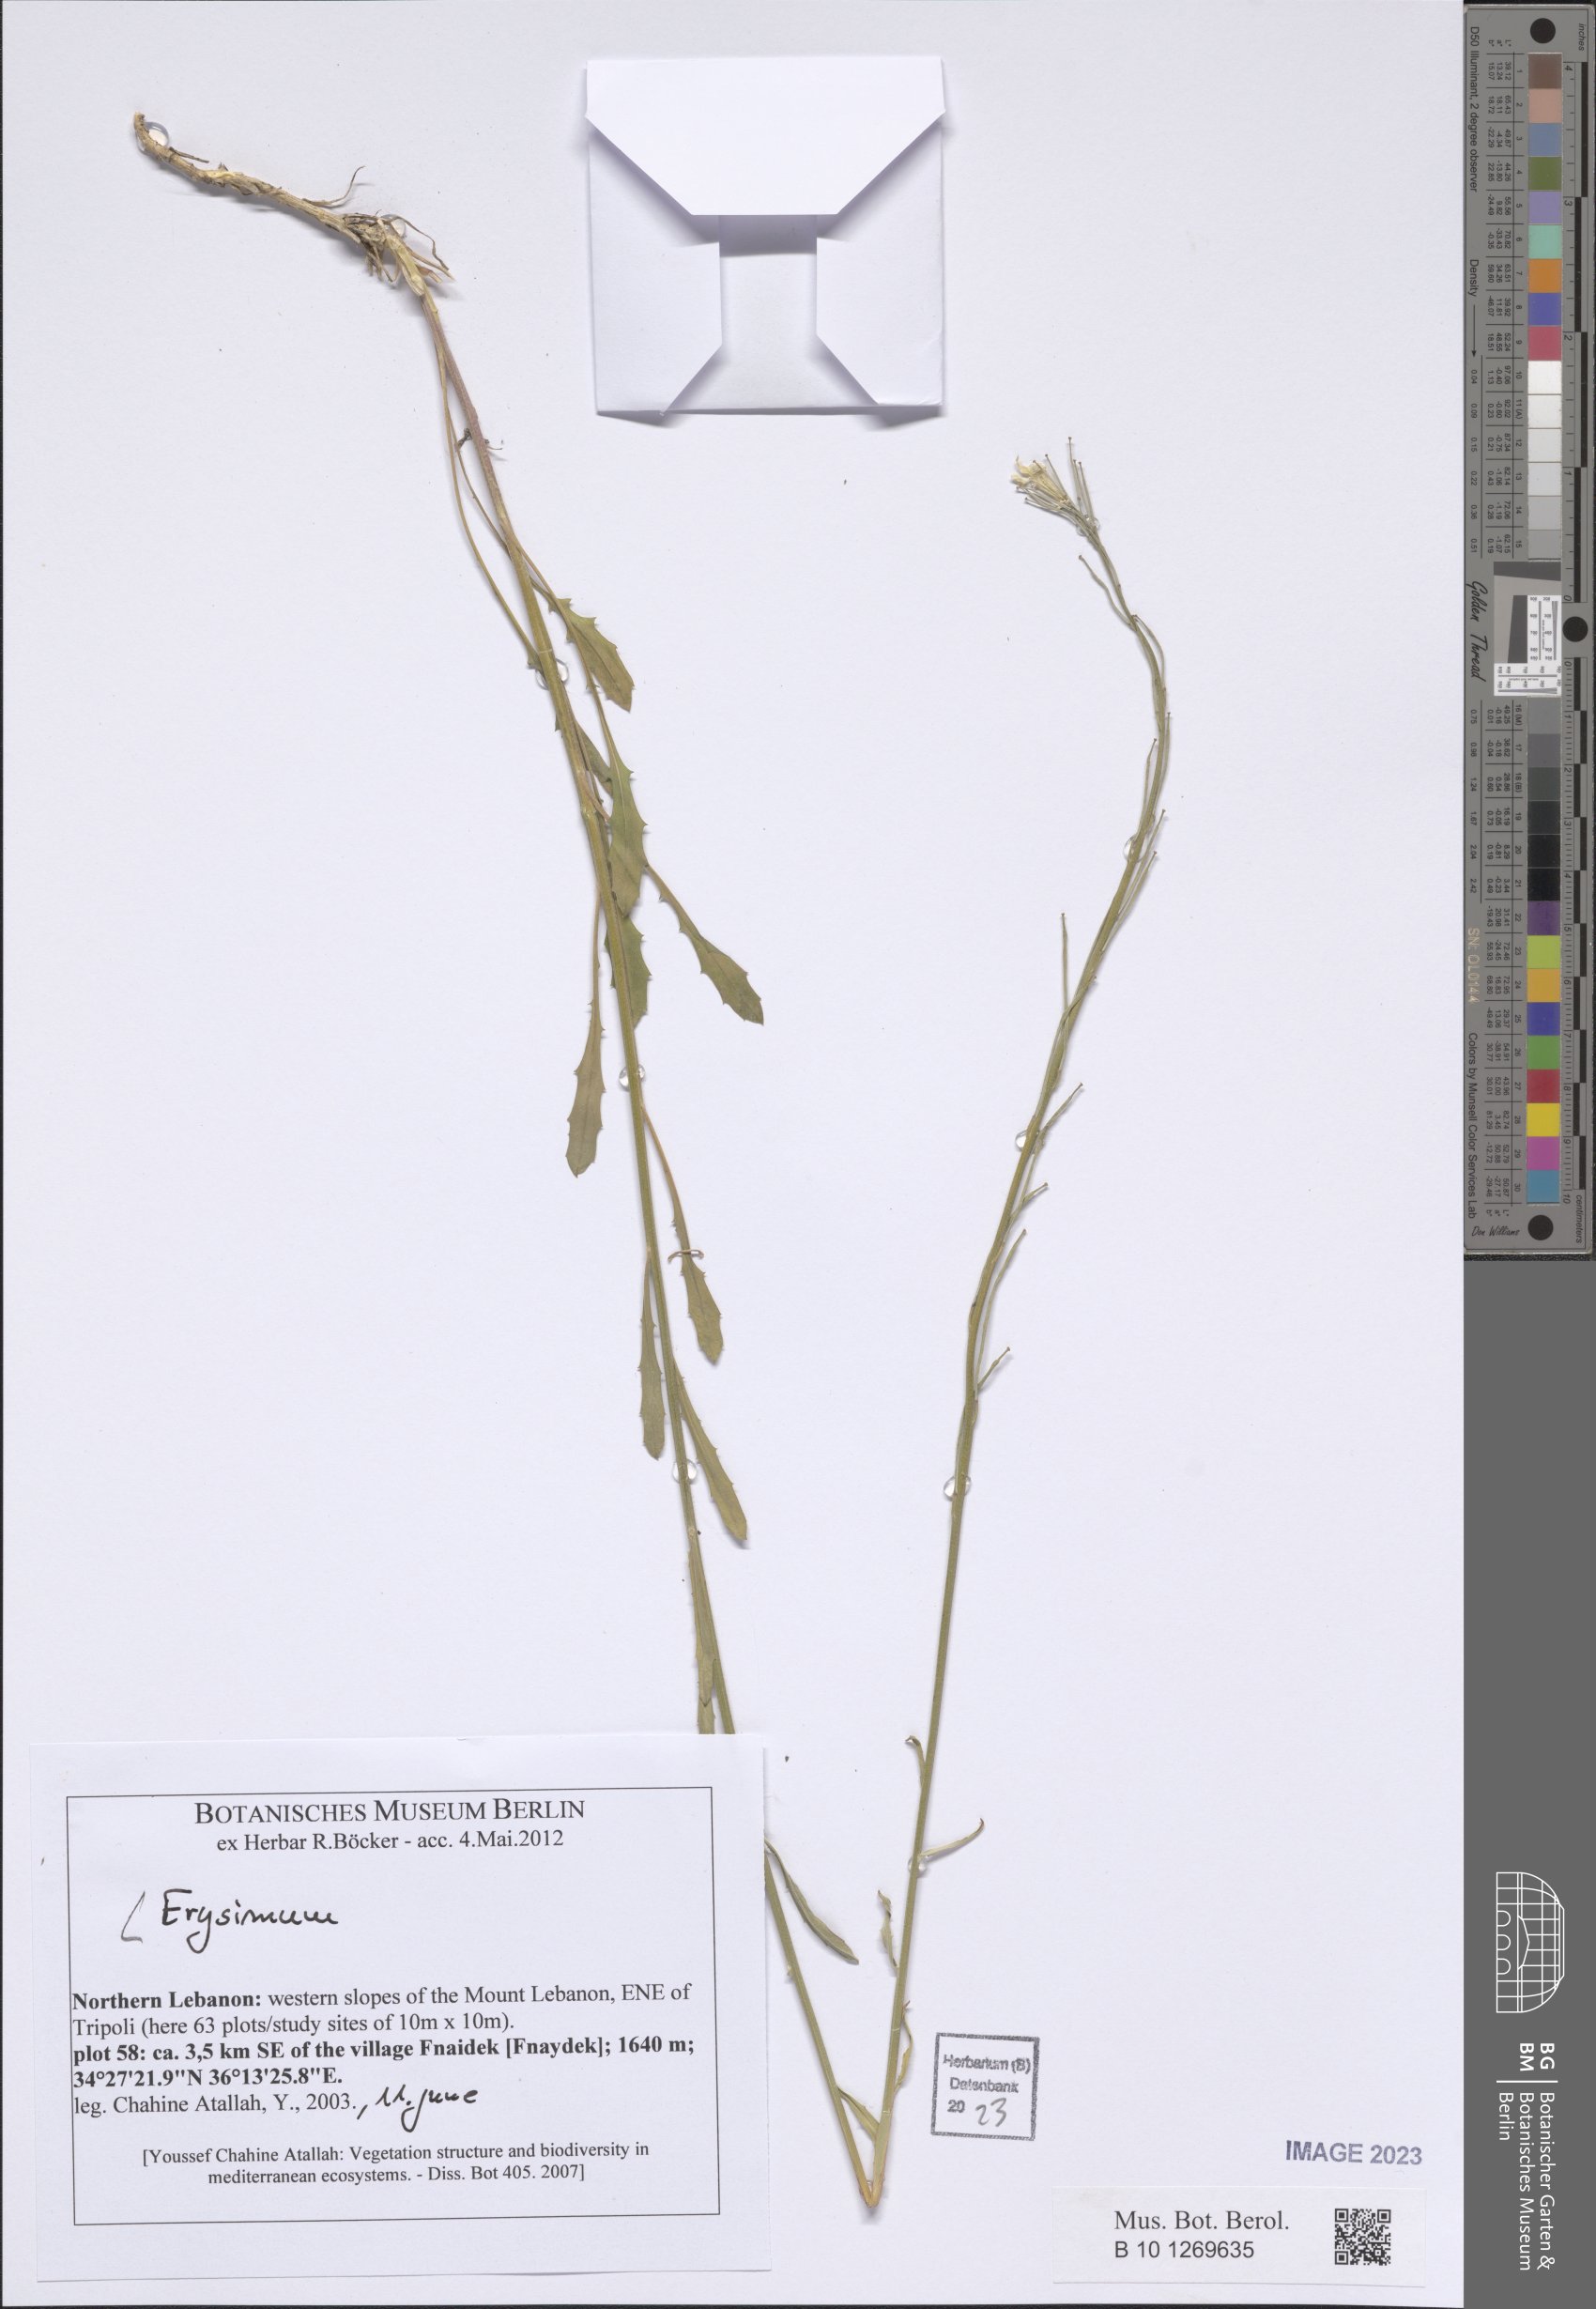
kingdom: Plantae
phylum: Tracheophyta
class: Magnoliopsida
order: Brassicales
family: Brassicaceae
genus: Erysimum
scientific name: Erysimum
